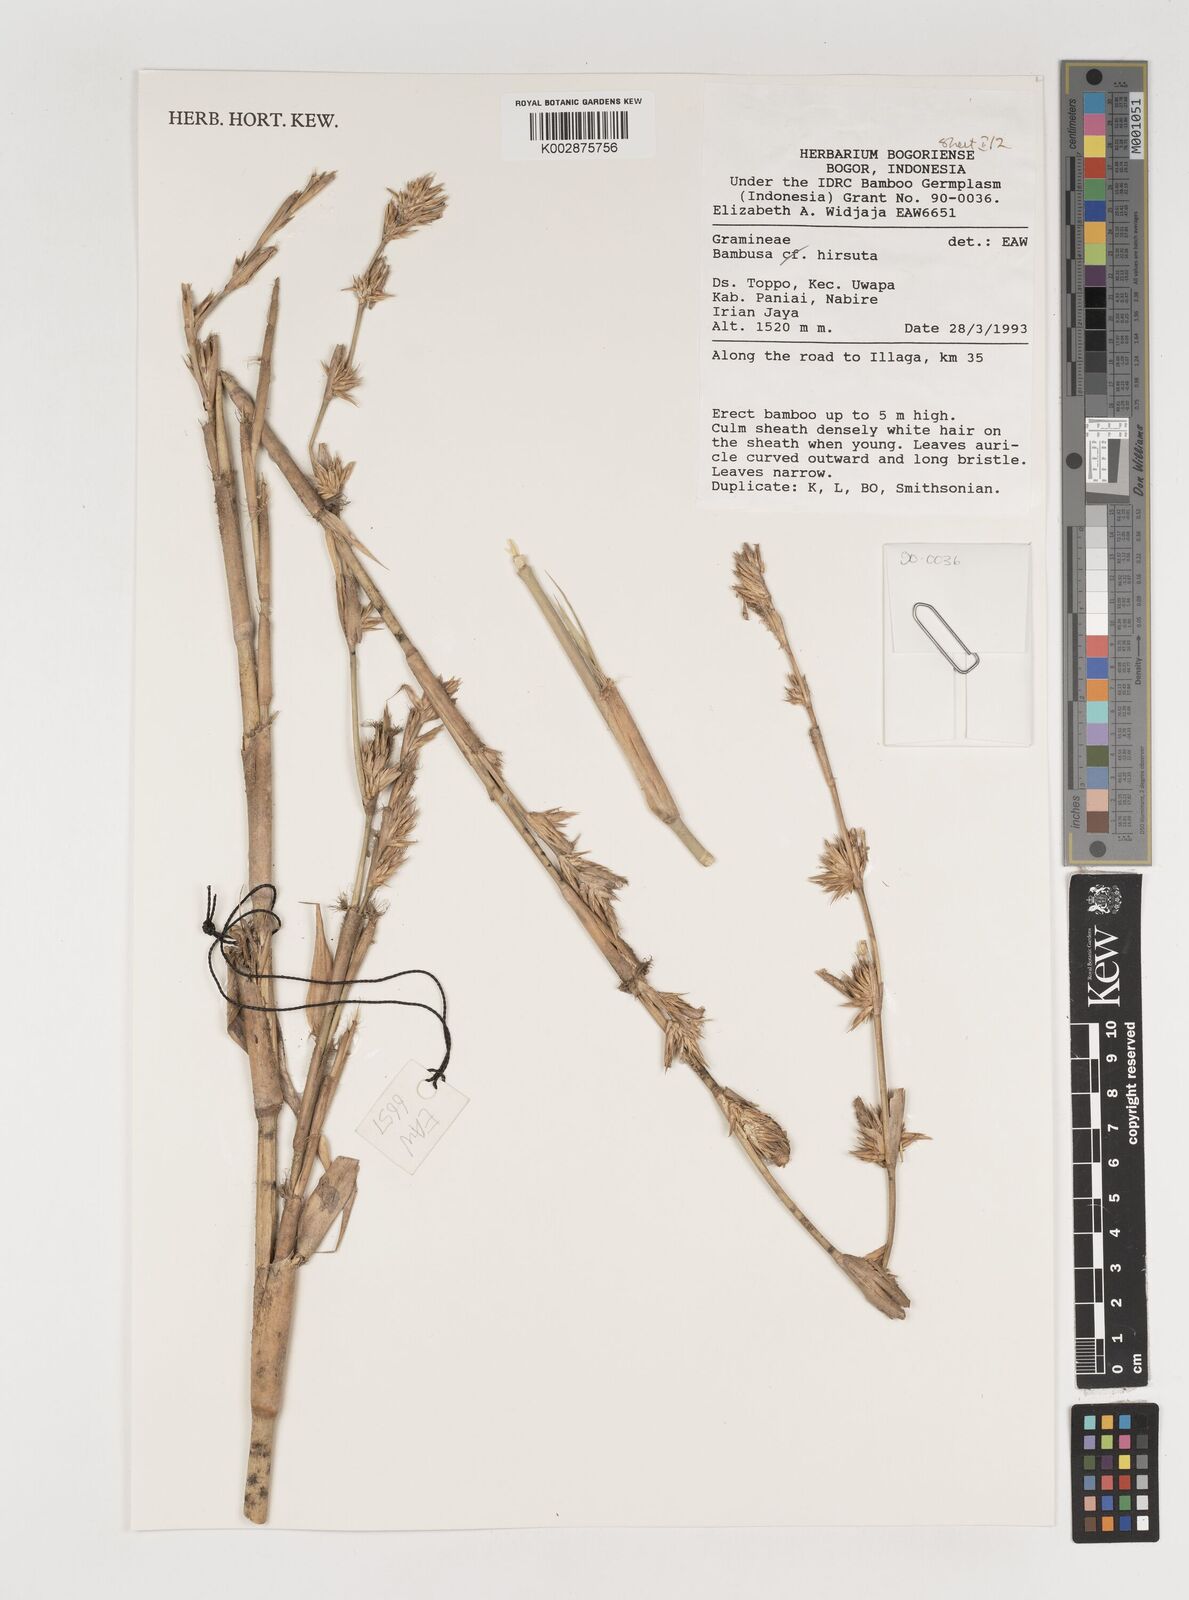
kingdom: Plantae
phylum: Tracheophyta
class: Liliopsida
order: Poales
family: Poaceae
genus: Neololeba
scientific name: Neololeba hirsuta
